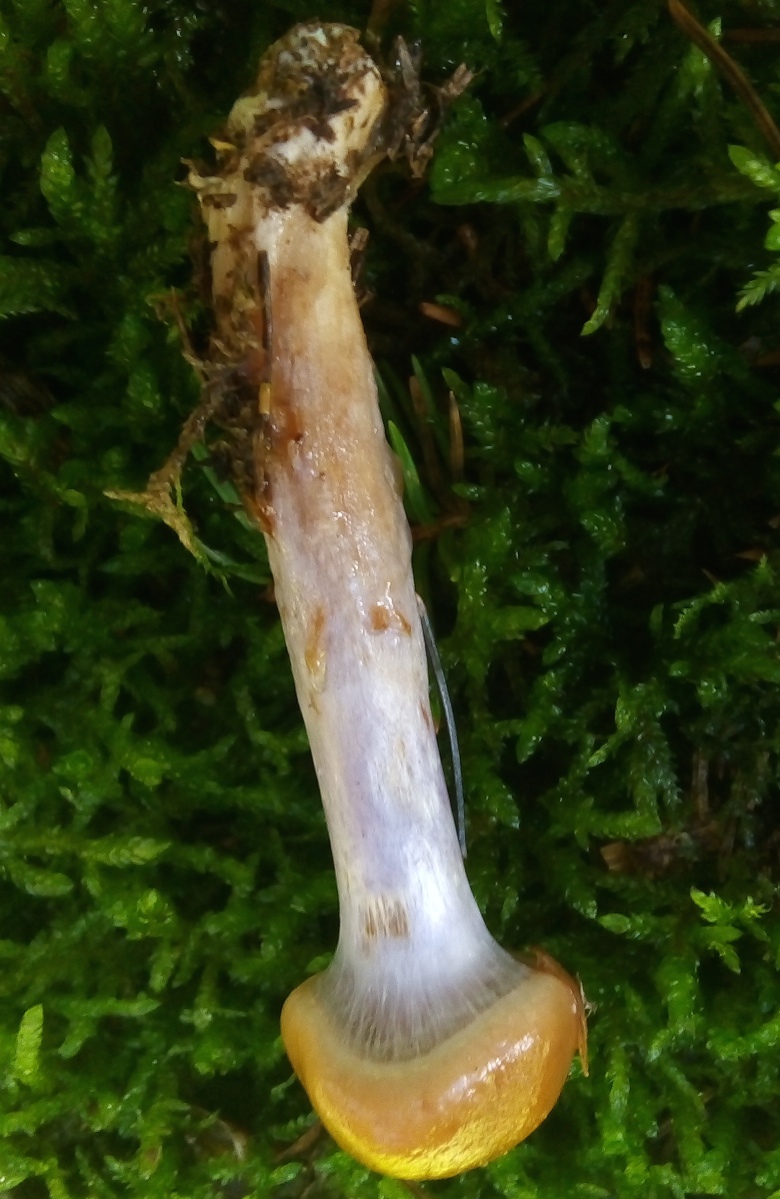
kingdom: Fungi
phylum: Basidiomycota
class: Agaricomycetes
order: Agaricales
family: Cortinariaceae
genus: Cortinarius
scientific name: Cortinarius stillatitius
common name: honningduftende slørhat
